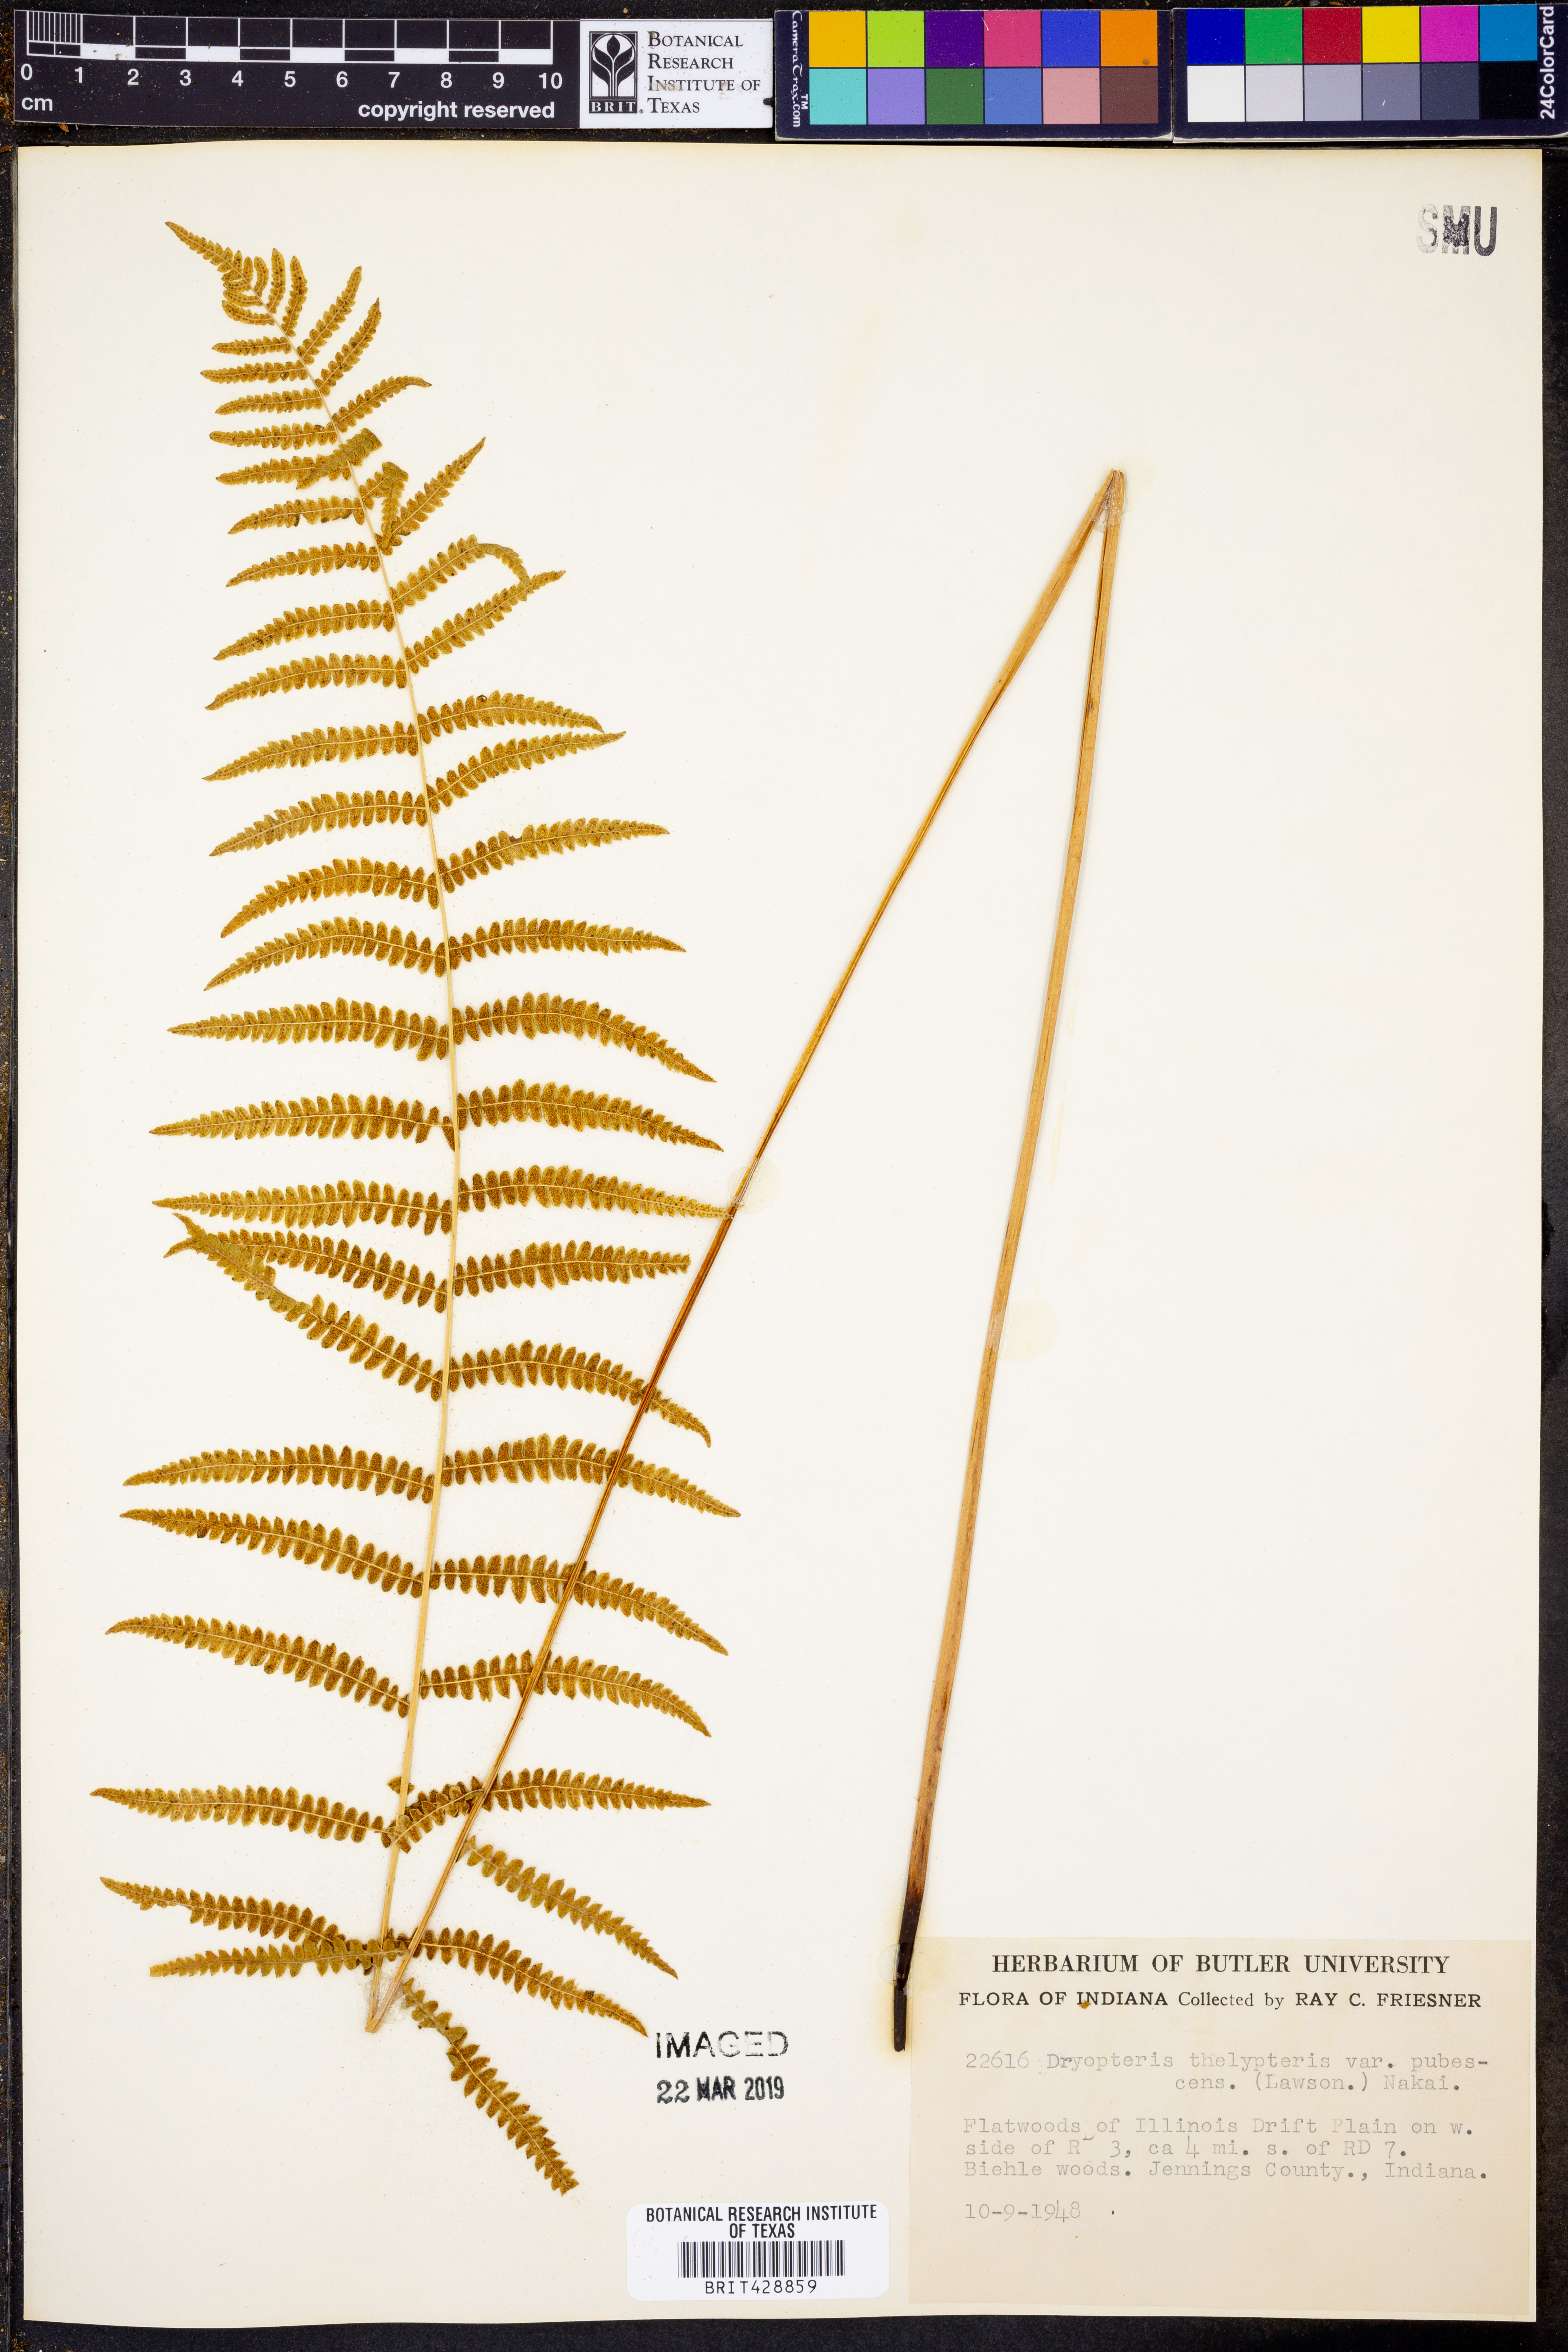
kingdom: Plantae
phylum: Tracheophyta
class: Polypodiopsida
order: Polypodiales
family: Thelypteridaceae
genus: Thelypteris
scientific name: Thelypteris palustris
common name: Marsh fern
